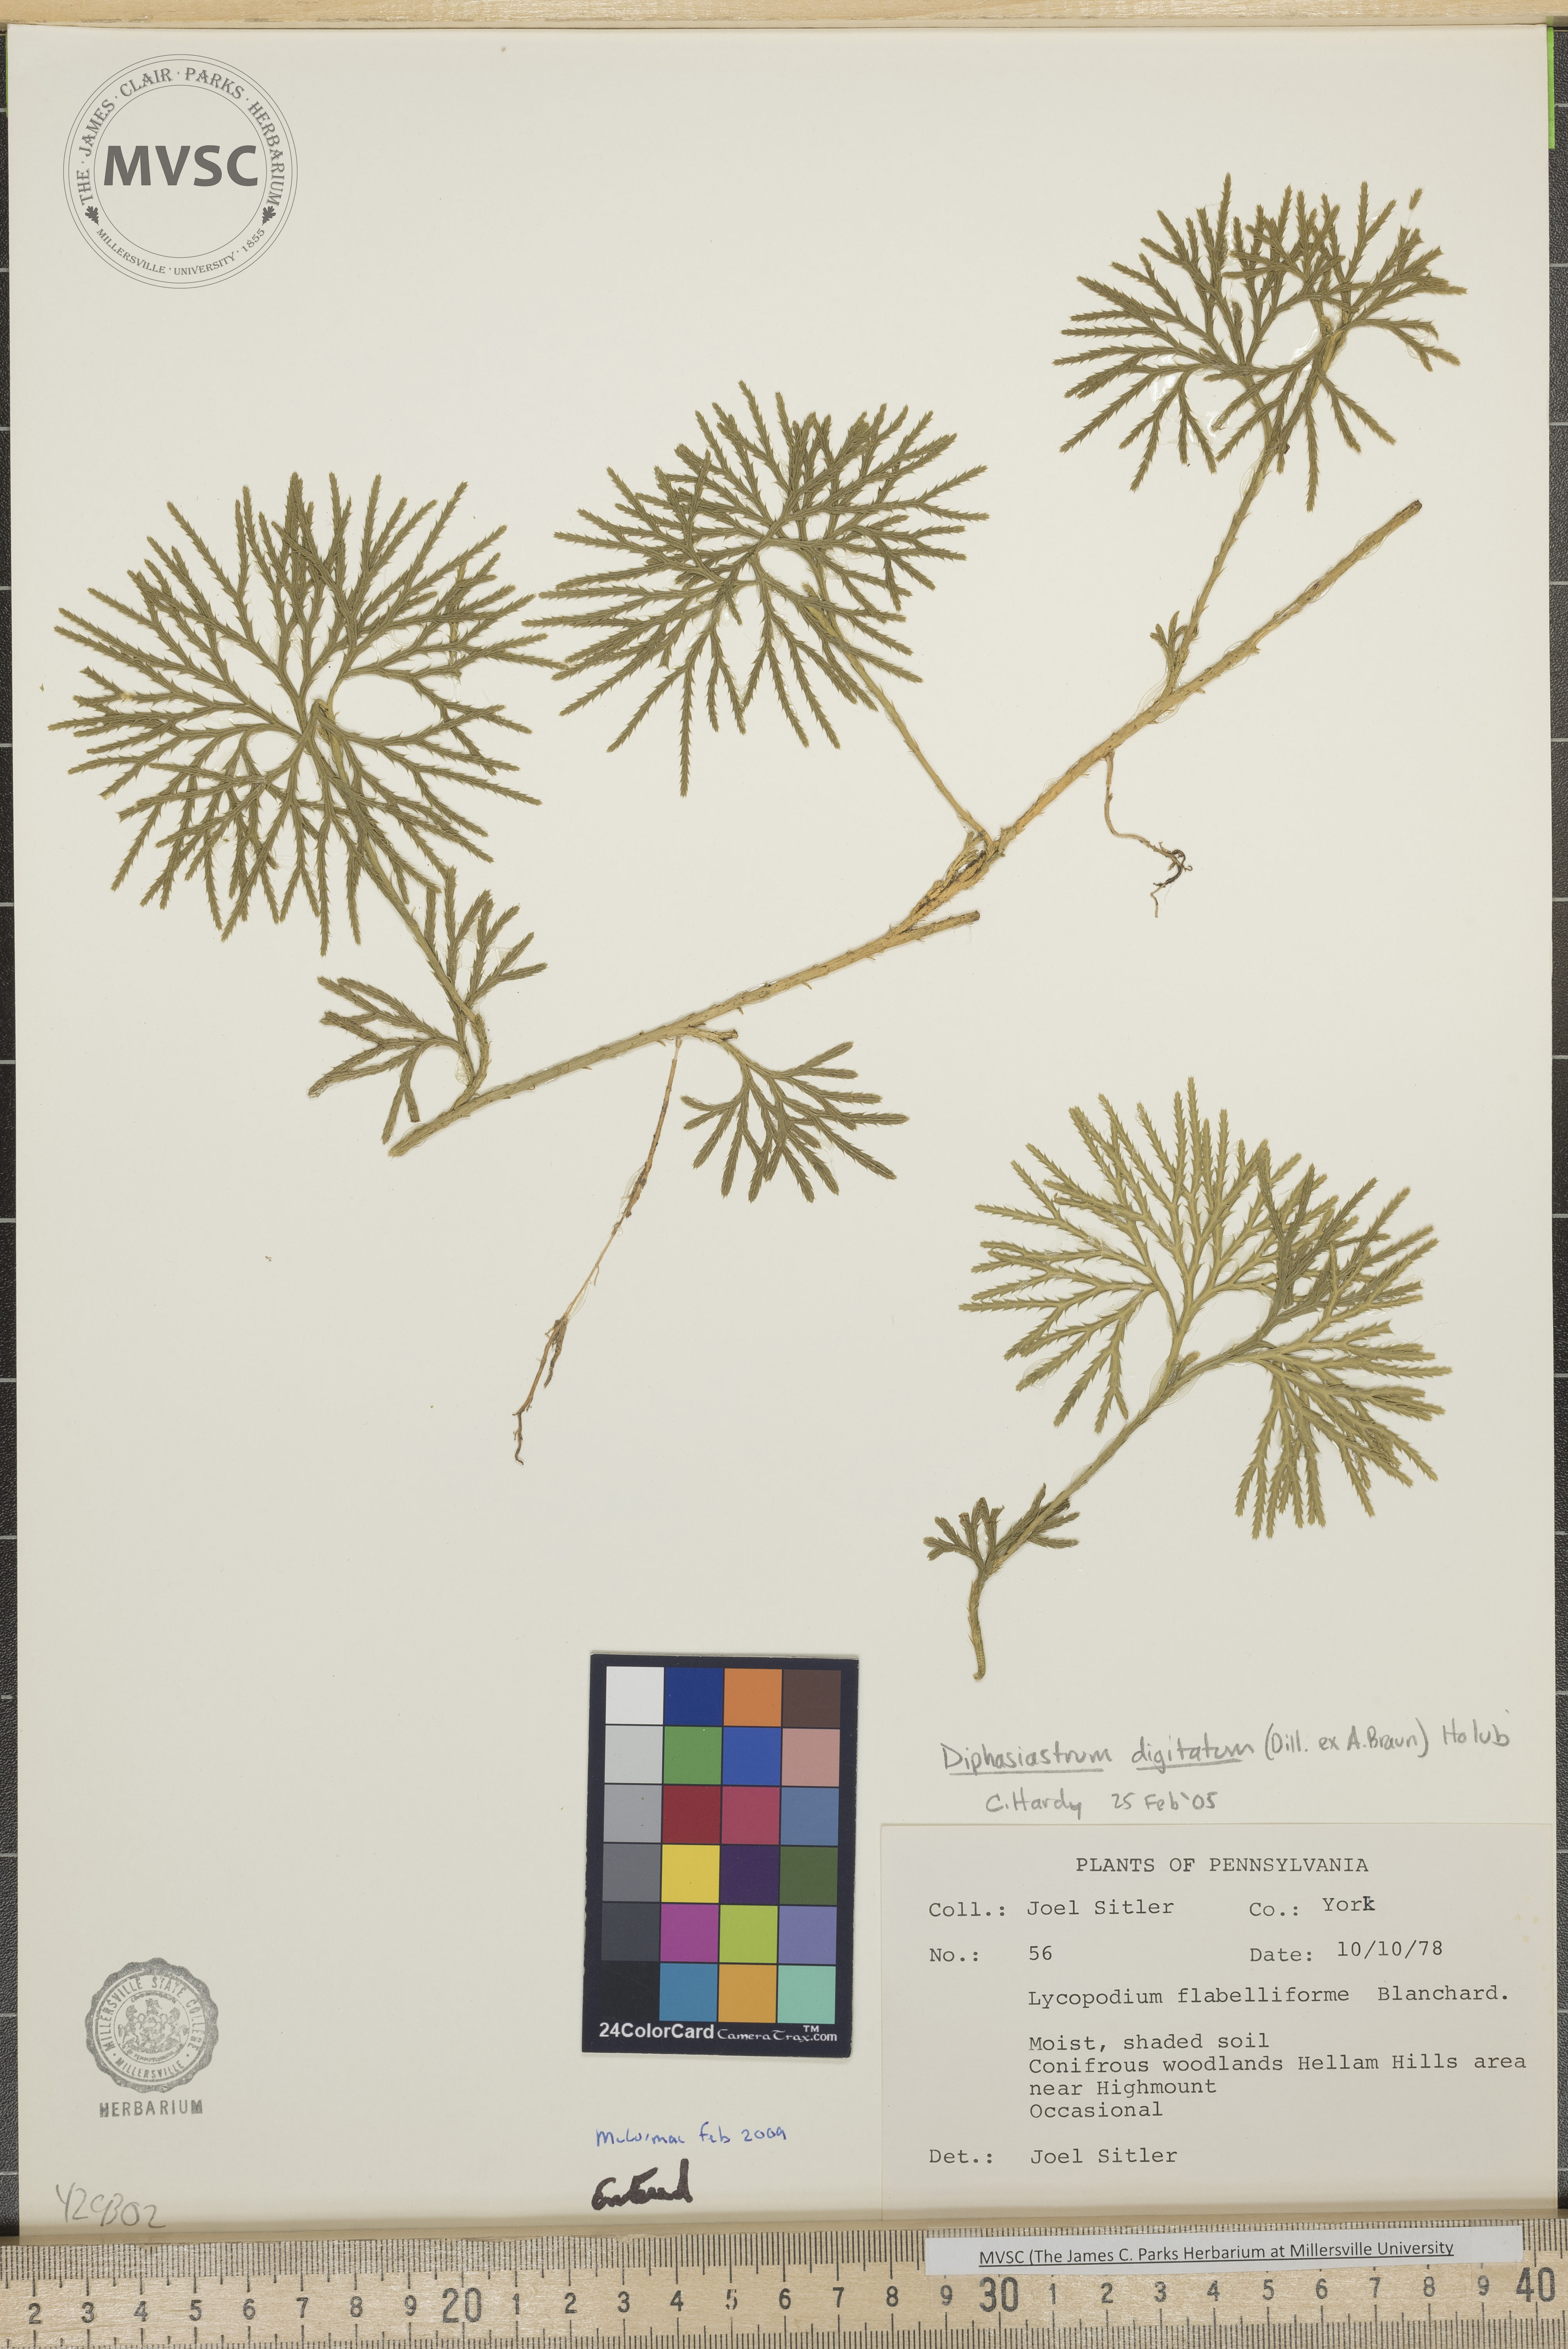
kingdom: Plantae
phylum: Tracheophyta
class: Lycopodiopsida
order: Lycopodiales
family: Lycopodiaceae
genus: Diphasiastrum
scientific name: Diphasiastrum digitatum
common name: Southern running-pine
